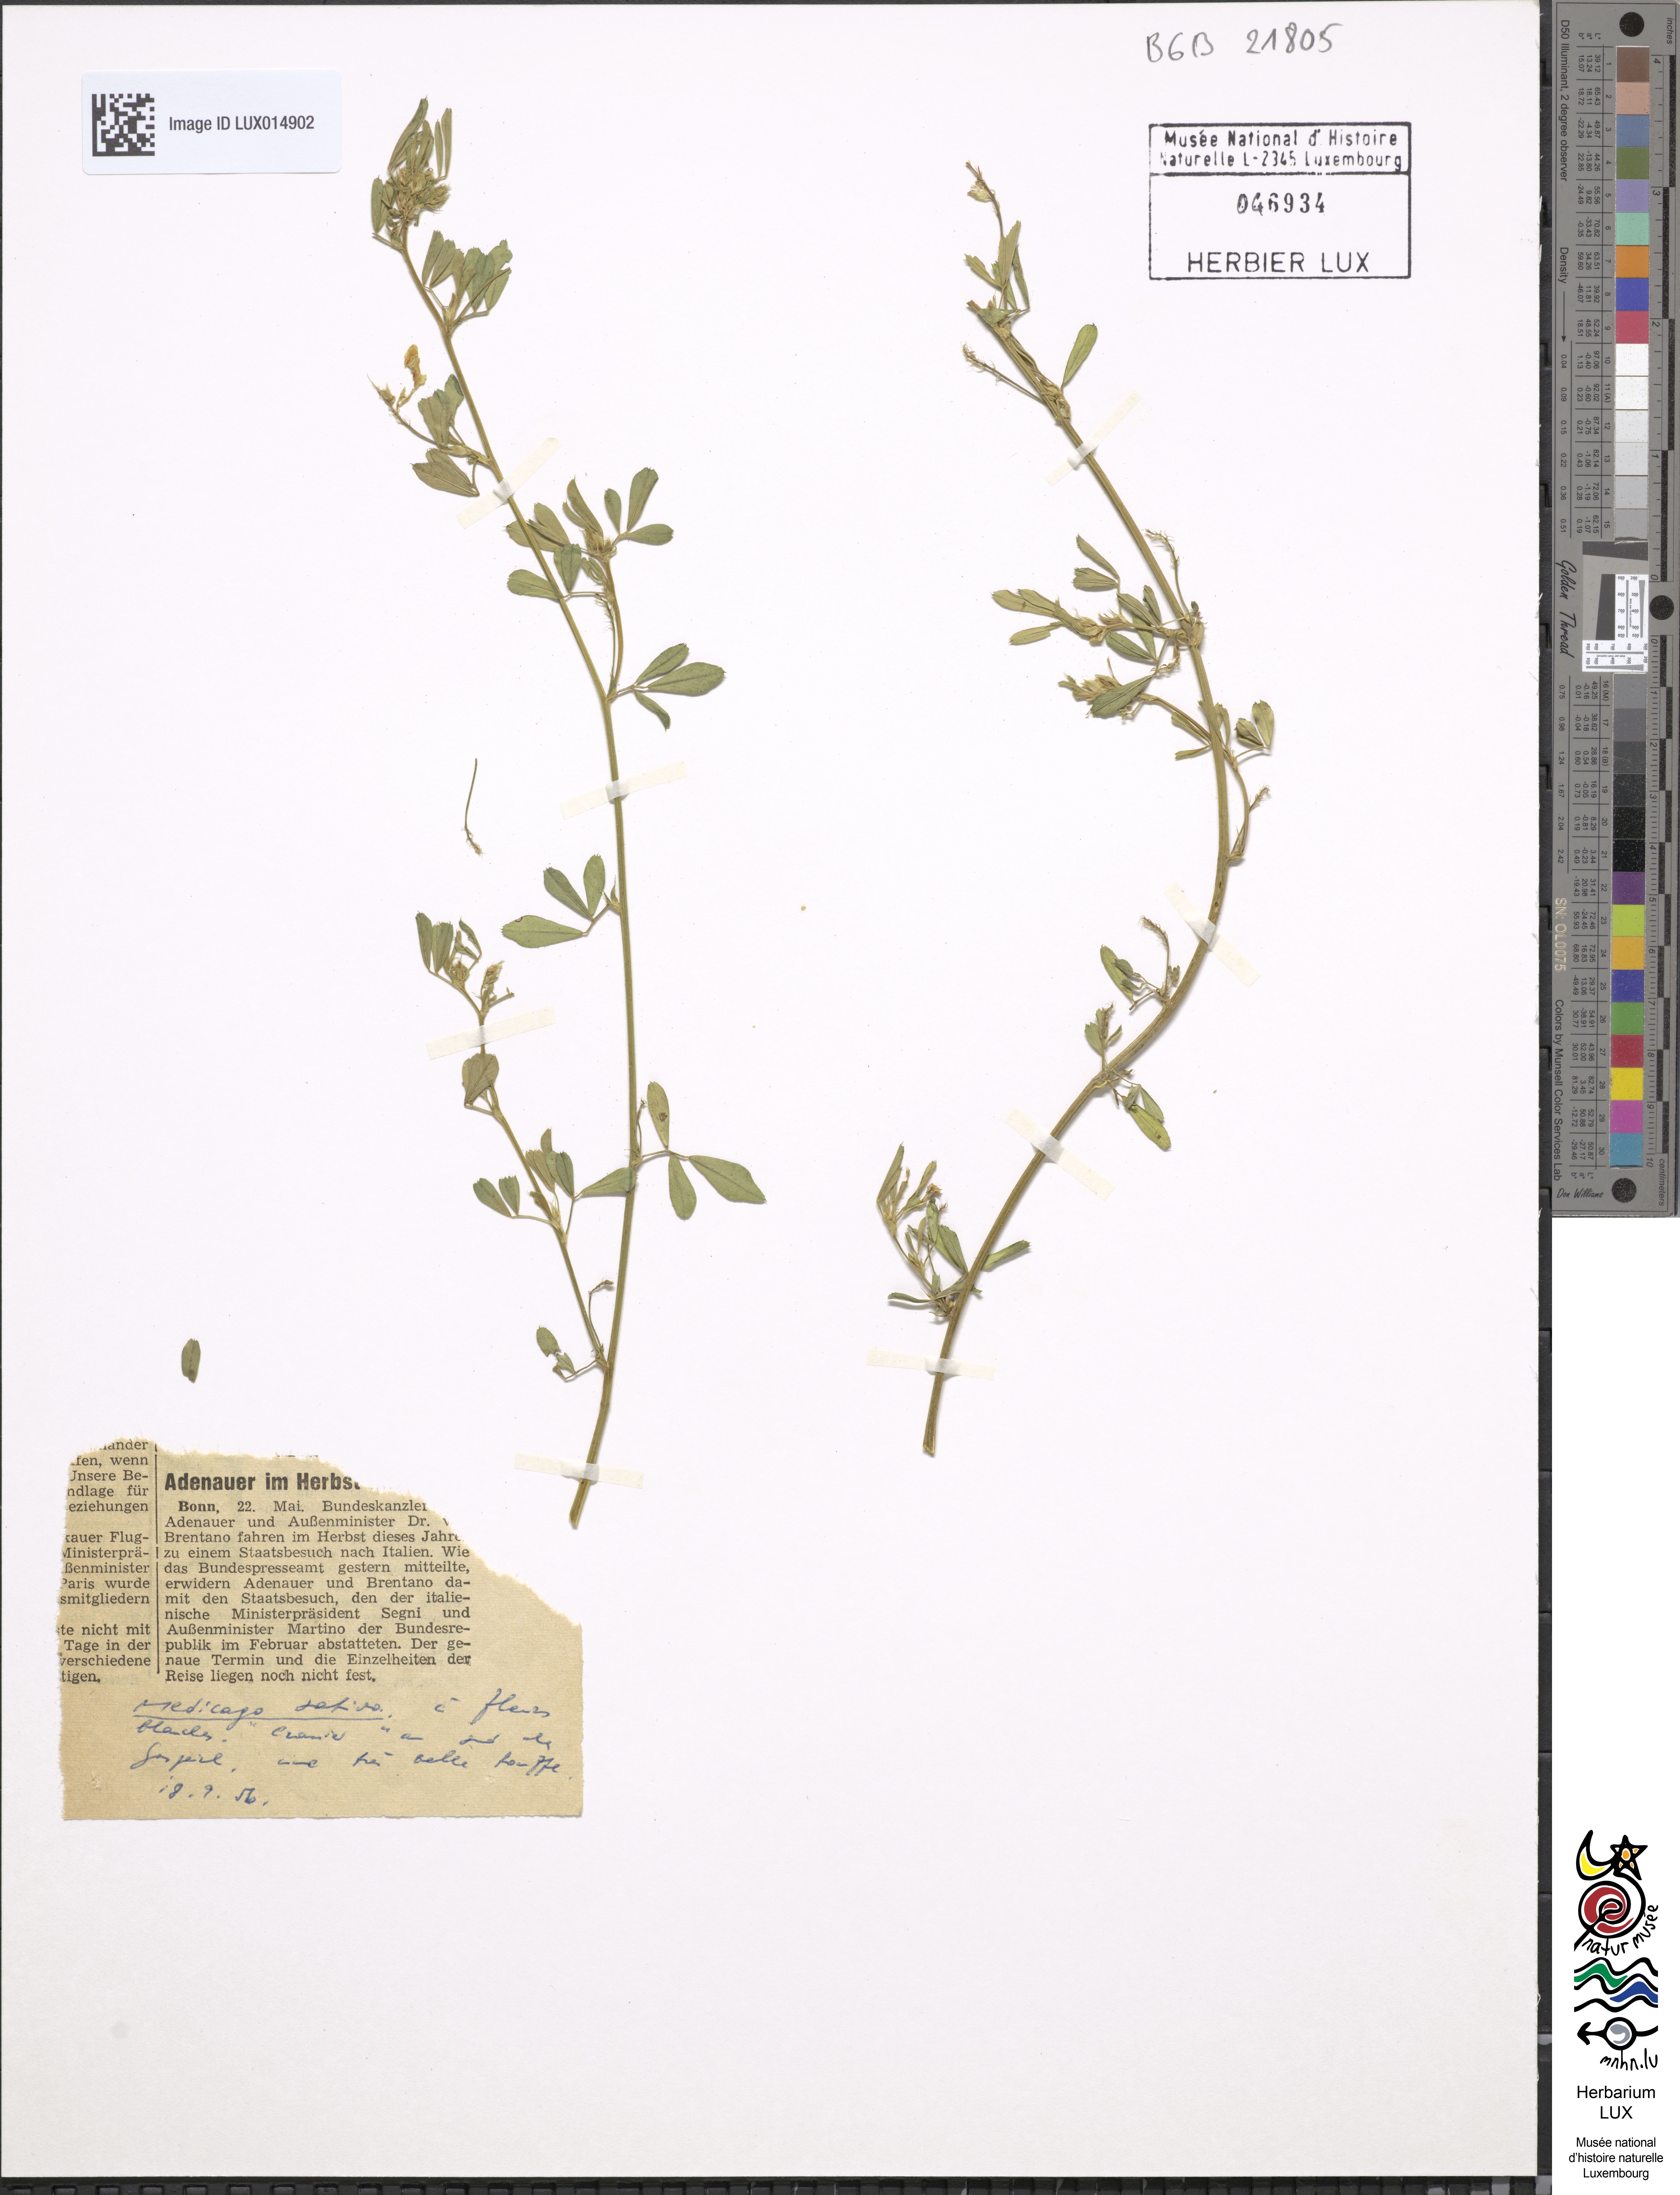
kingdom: Plantae
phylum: Tracheophyta
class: Magnoliopsida
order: Fabales
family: Fabaceae
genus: Medicago
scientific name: Medicago sativa
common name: Alfalfa
